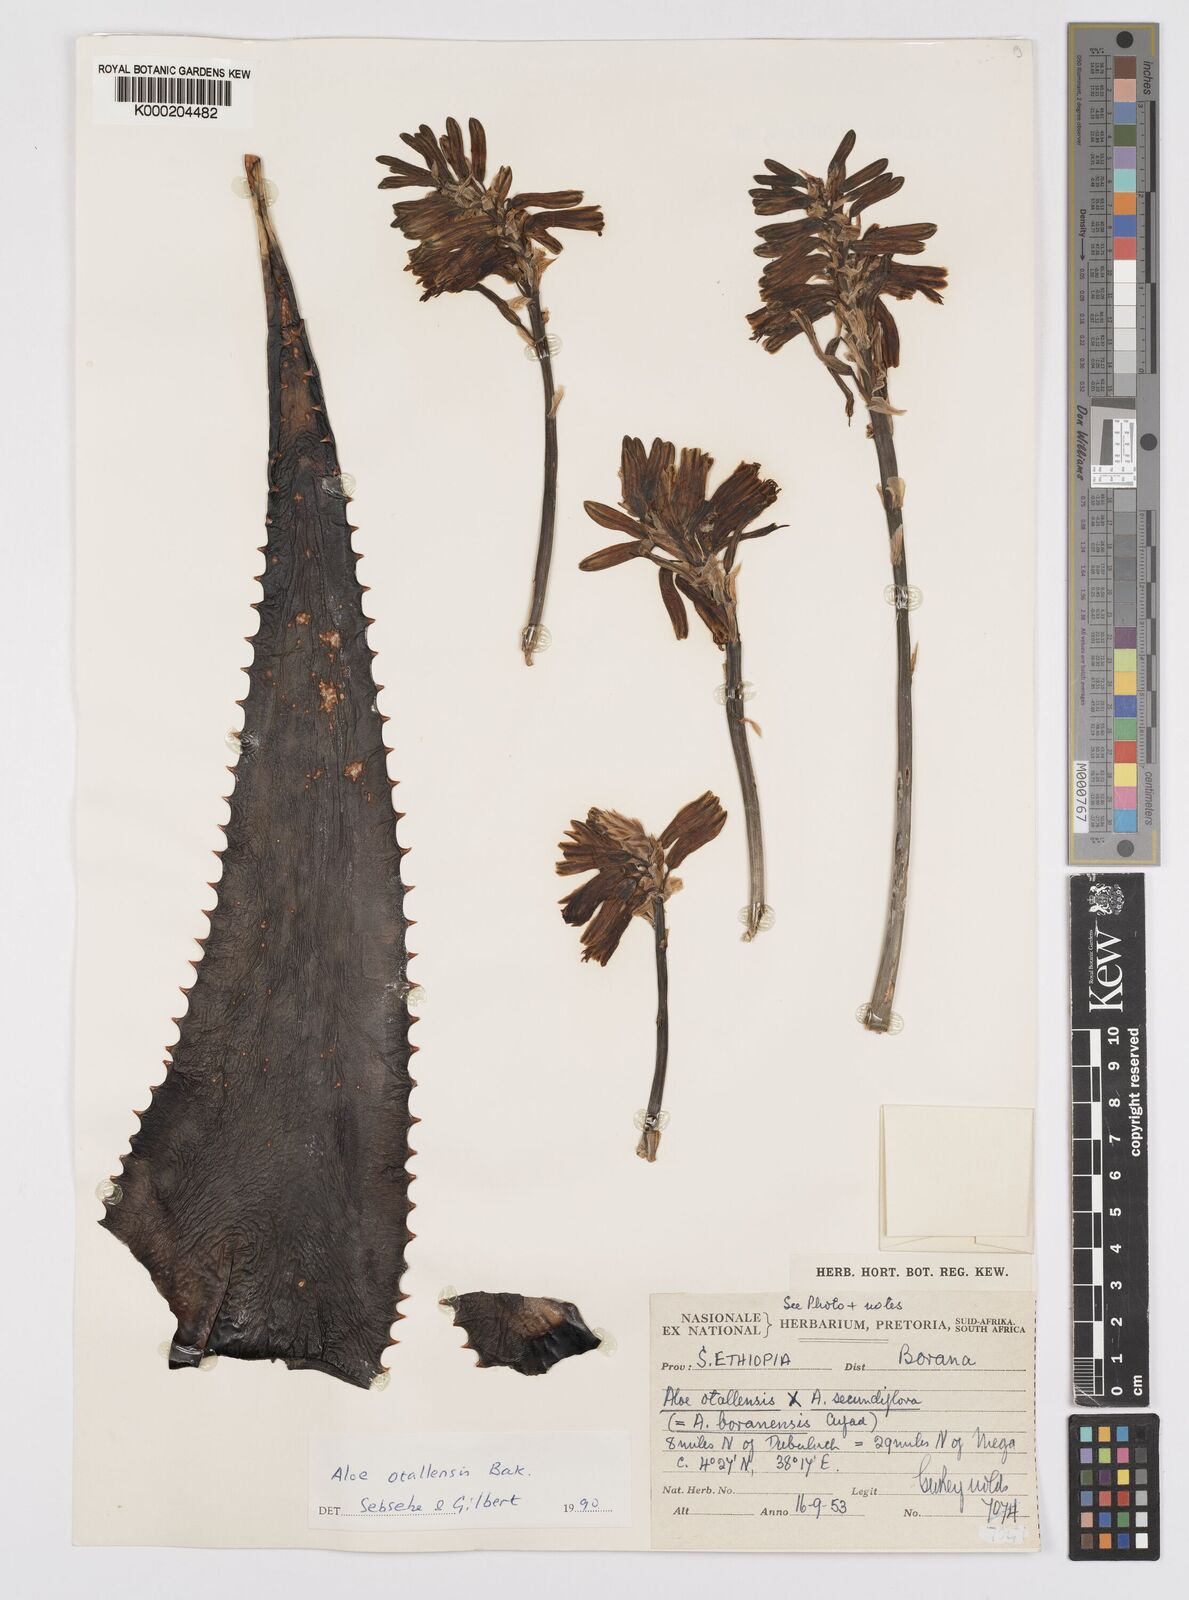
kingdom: Plantae
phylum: Tracheophyta
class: Liliopsida
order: Asparagales
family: Asphodelaceae
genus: Aloe
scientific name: Aloe otallensis
